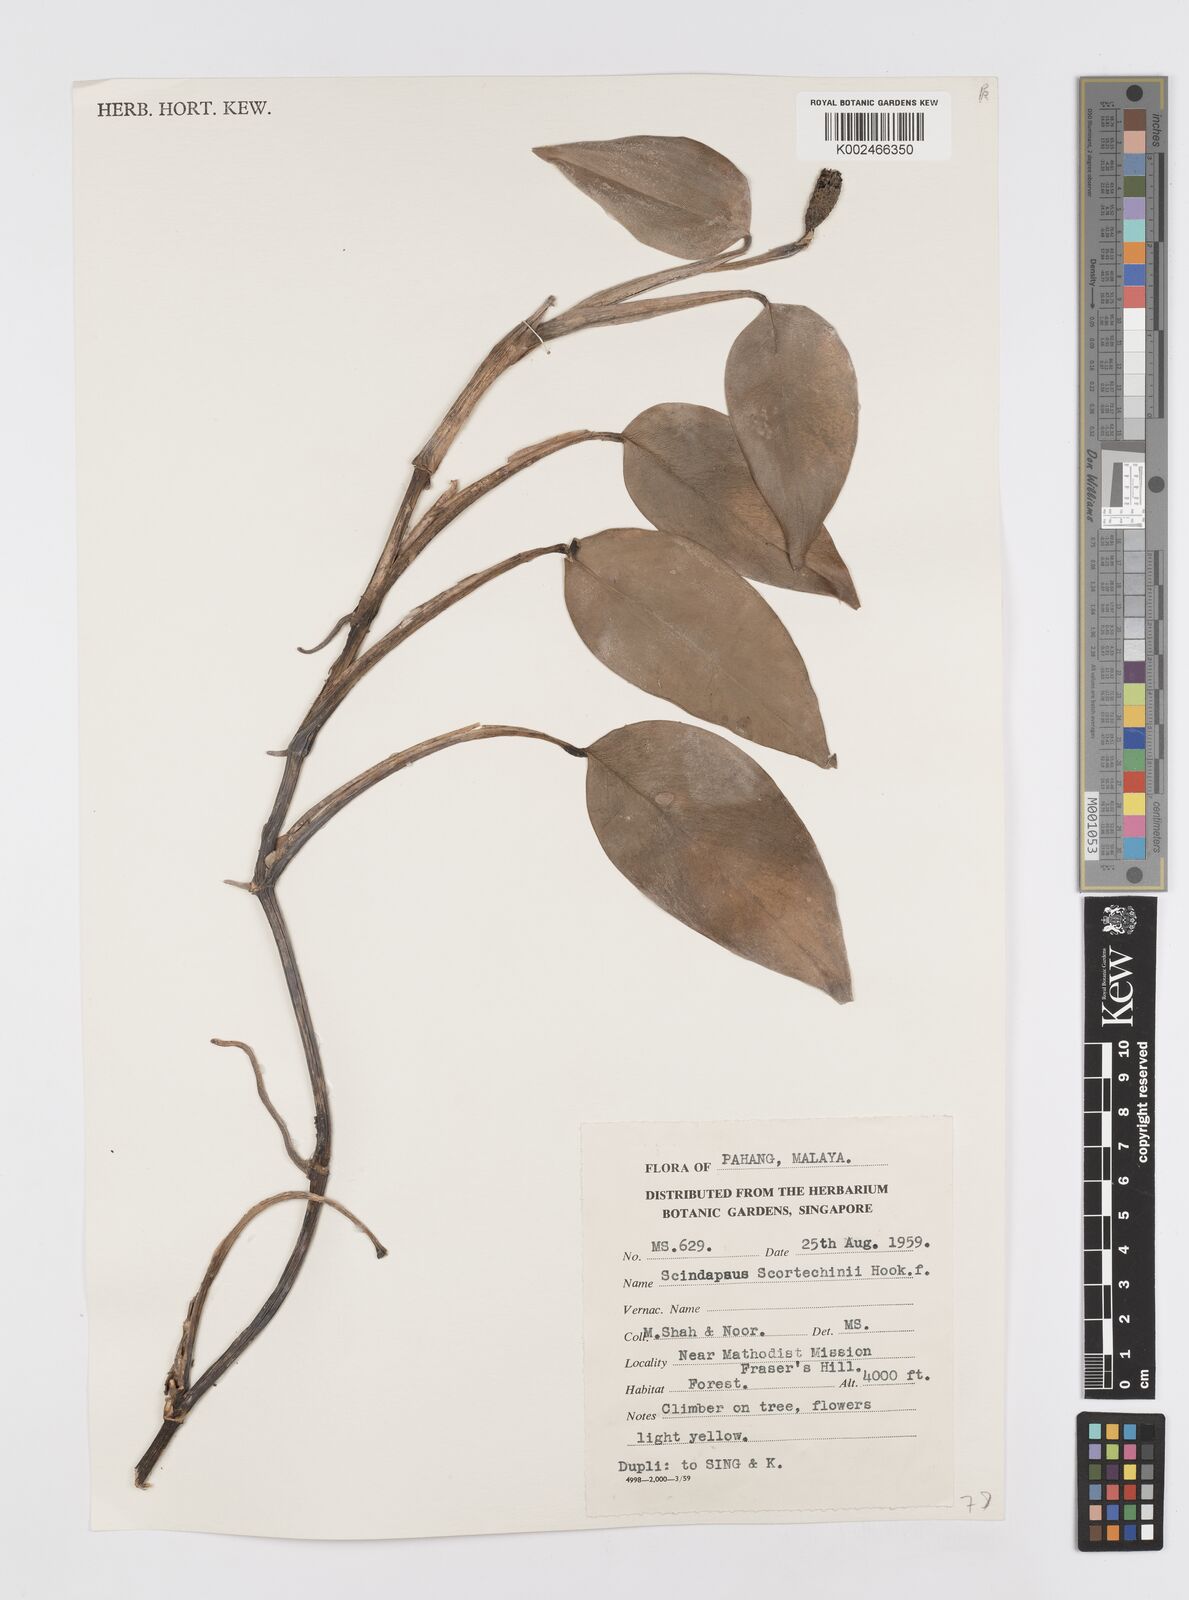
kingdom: Plantae
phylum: Tracheophyta
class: Liliopsida
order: Alismatales
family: Araceae
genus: Scindapsus
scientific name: Scindapsus scortechinii
